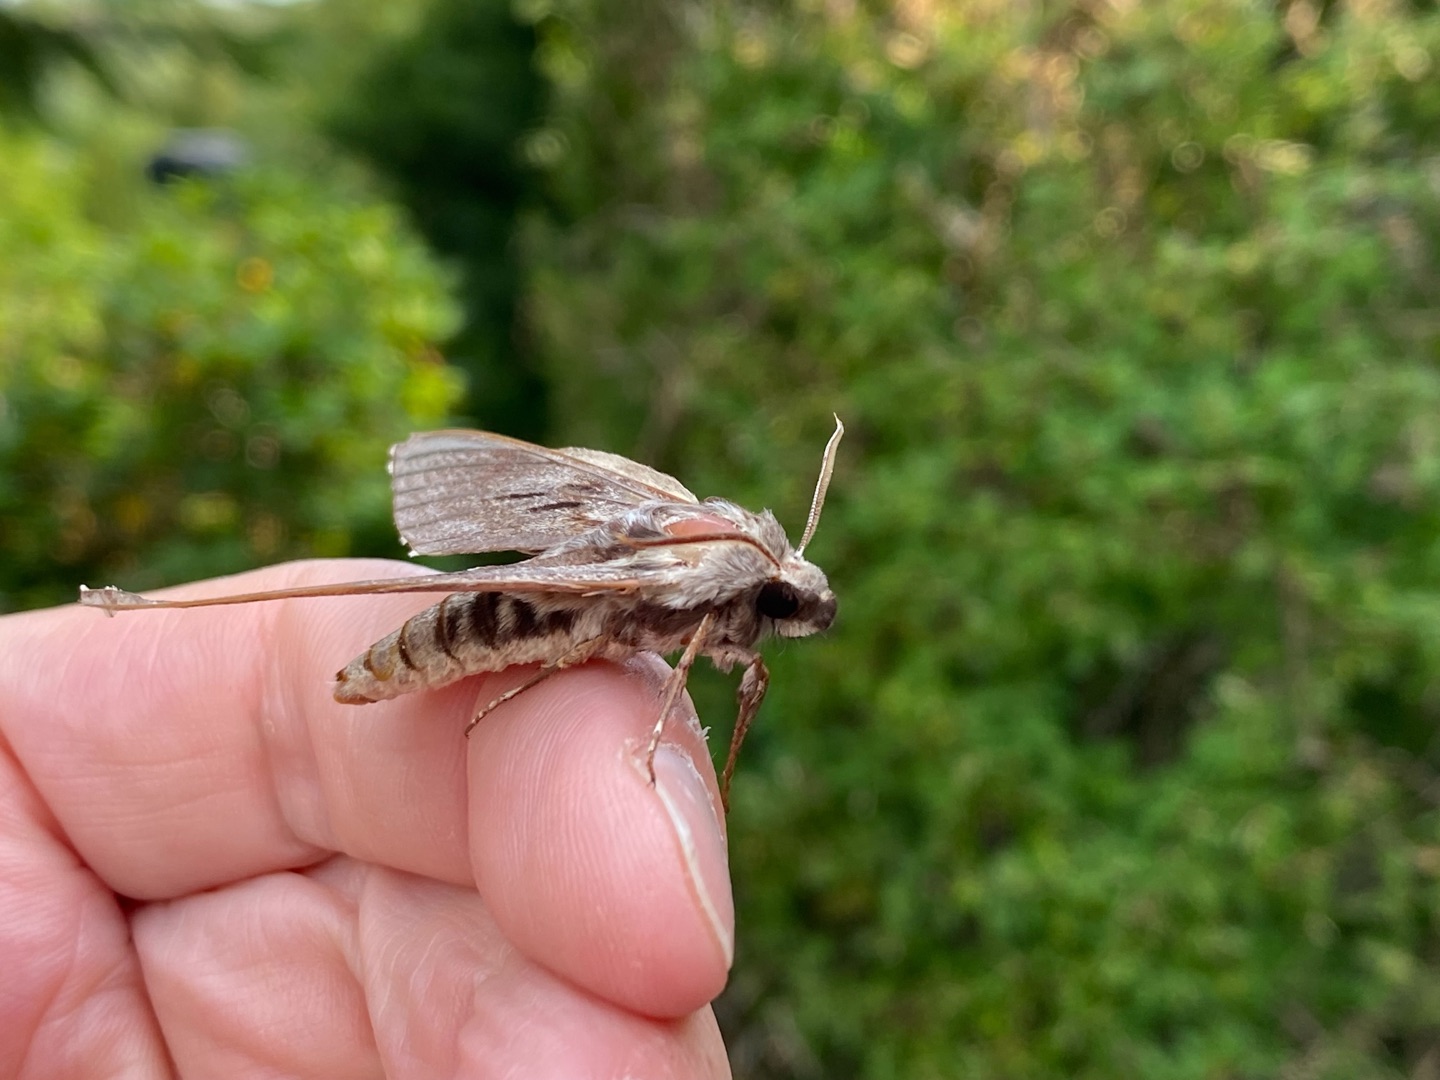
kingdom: Animalia
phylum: Arthropoda
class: Insecta
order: Lepidoptera
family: Sphingidae
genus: Sphinx
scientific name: Sphinx pinastri
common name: Fyrresværmer
